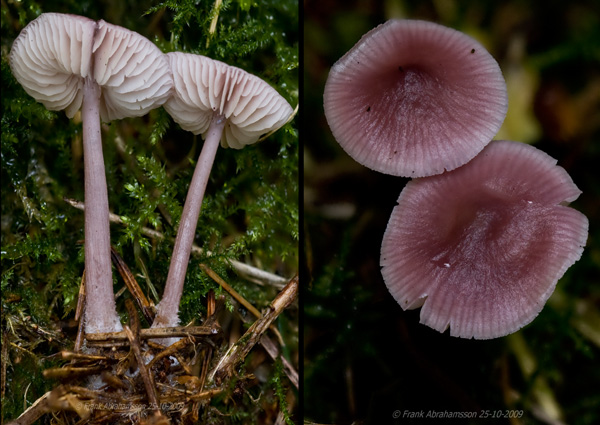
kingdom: Fungi
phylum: Basidiomycota
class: Agaricomycetes
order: Agaricales
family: Mycenaceae
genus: Mycena
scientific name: Mycena rosea
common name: rosa huesvamp
